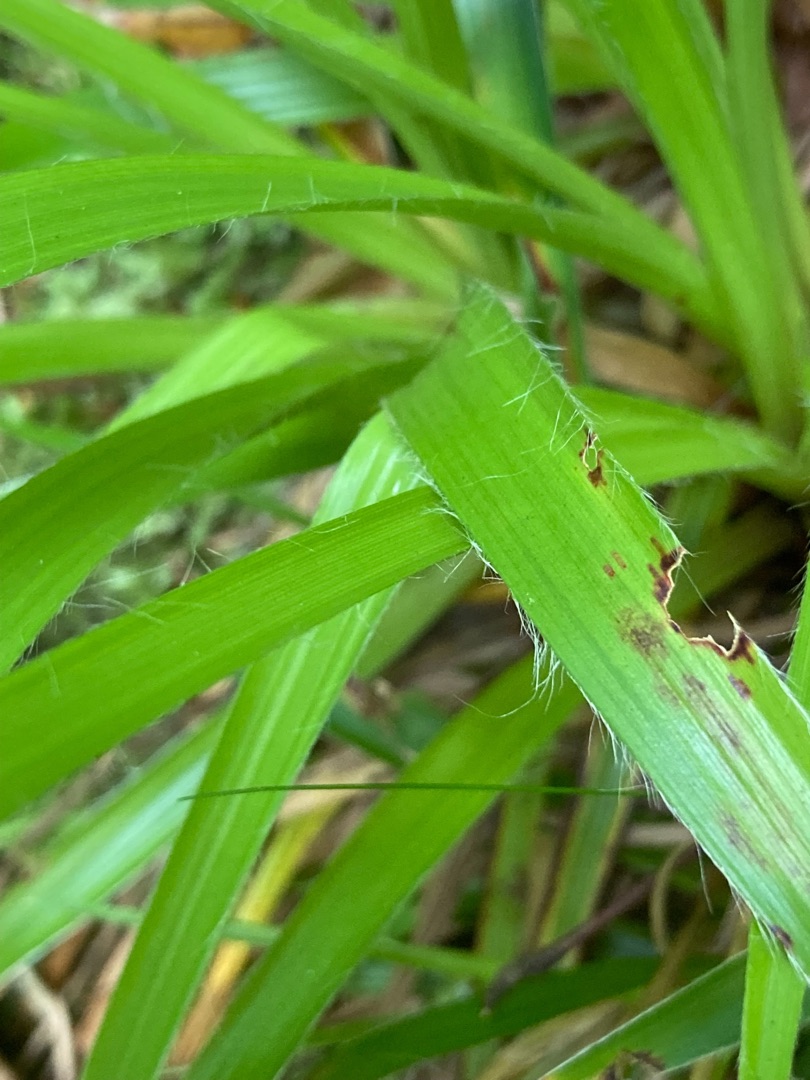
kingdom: Plantae
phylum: Tracheophyta
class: Liliopsida
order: Poales
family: Juncaceae
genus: Luzula
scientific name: Luzula sylvatica
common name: Stor frytle
